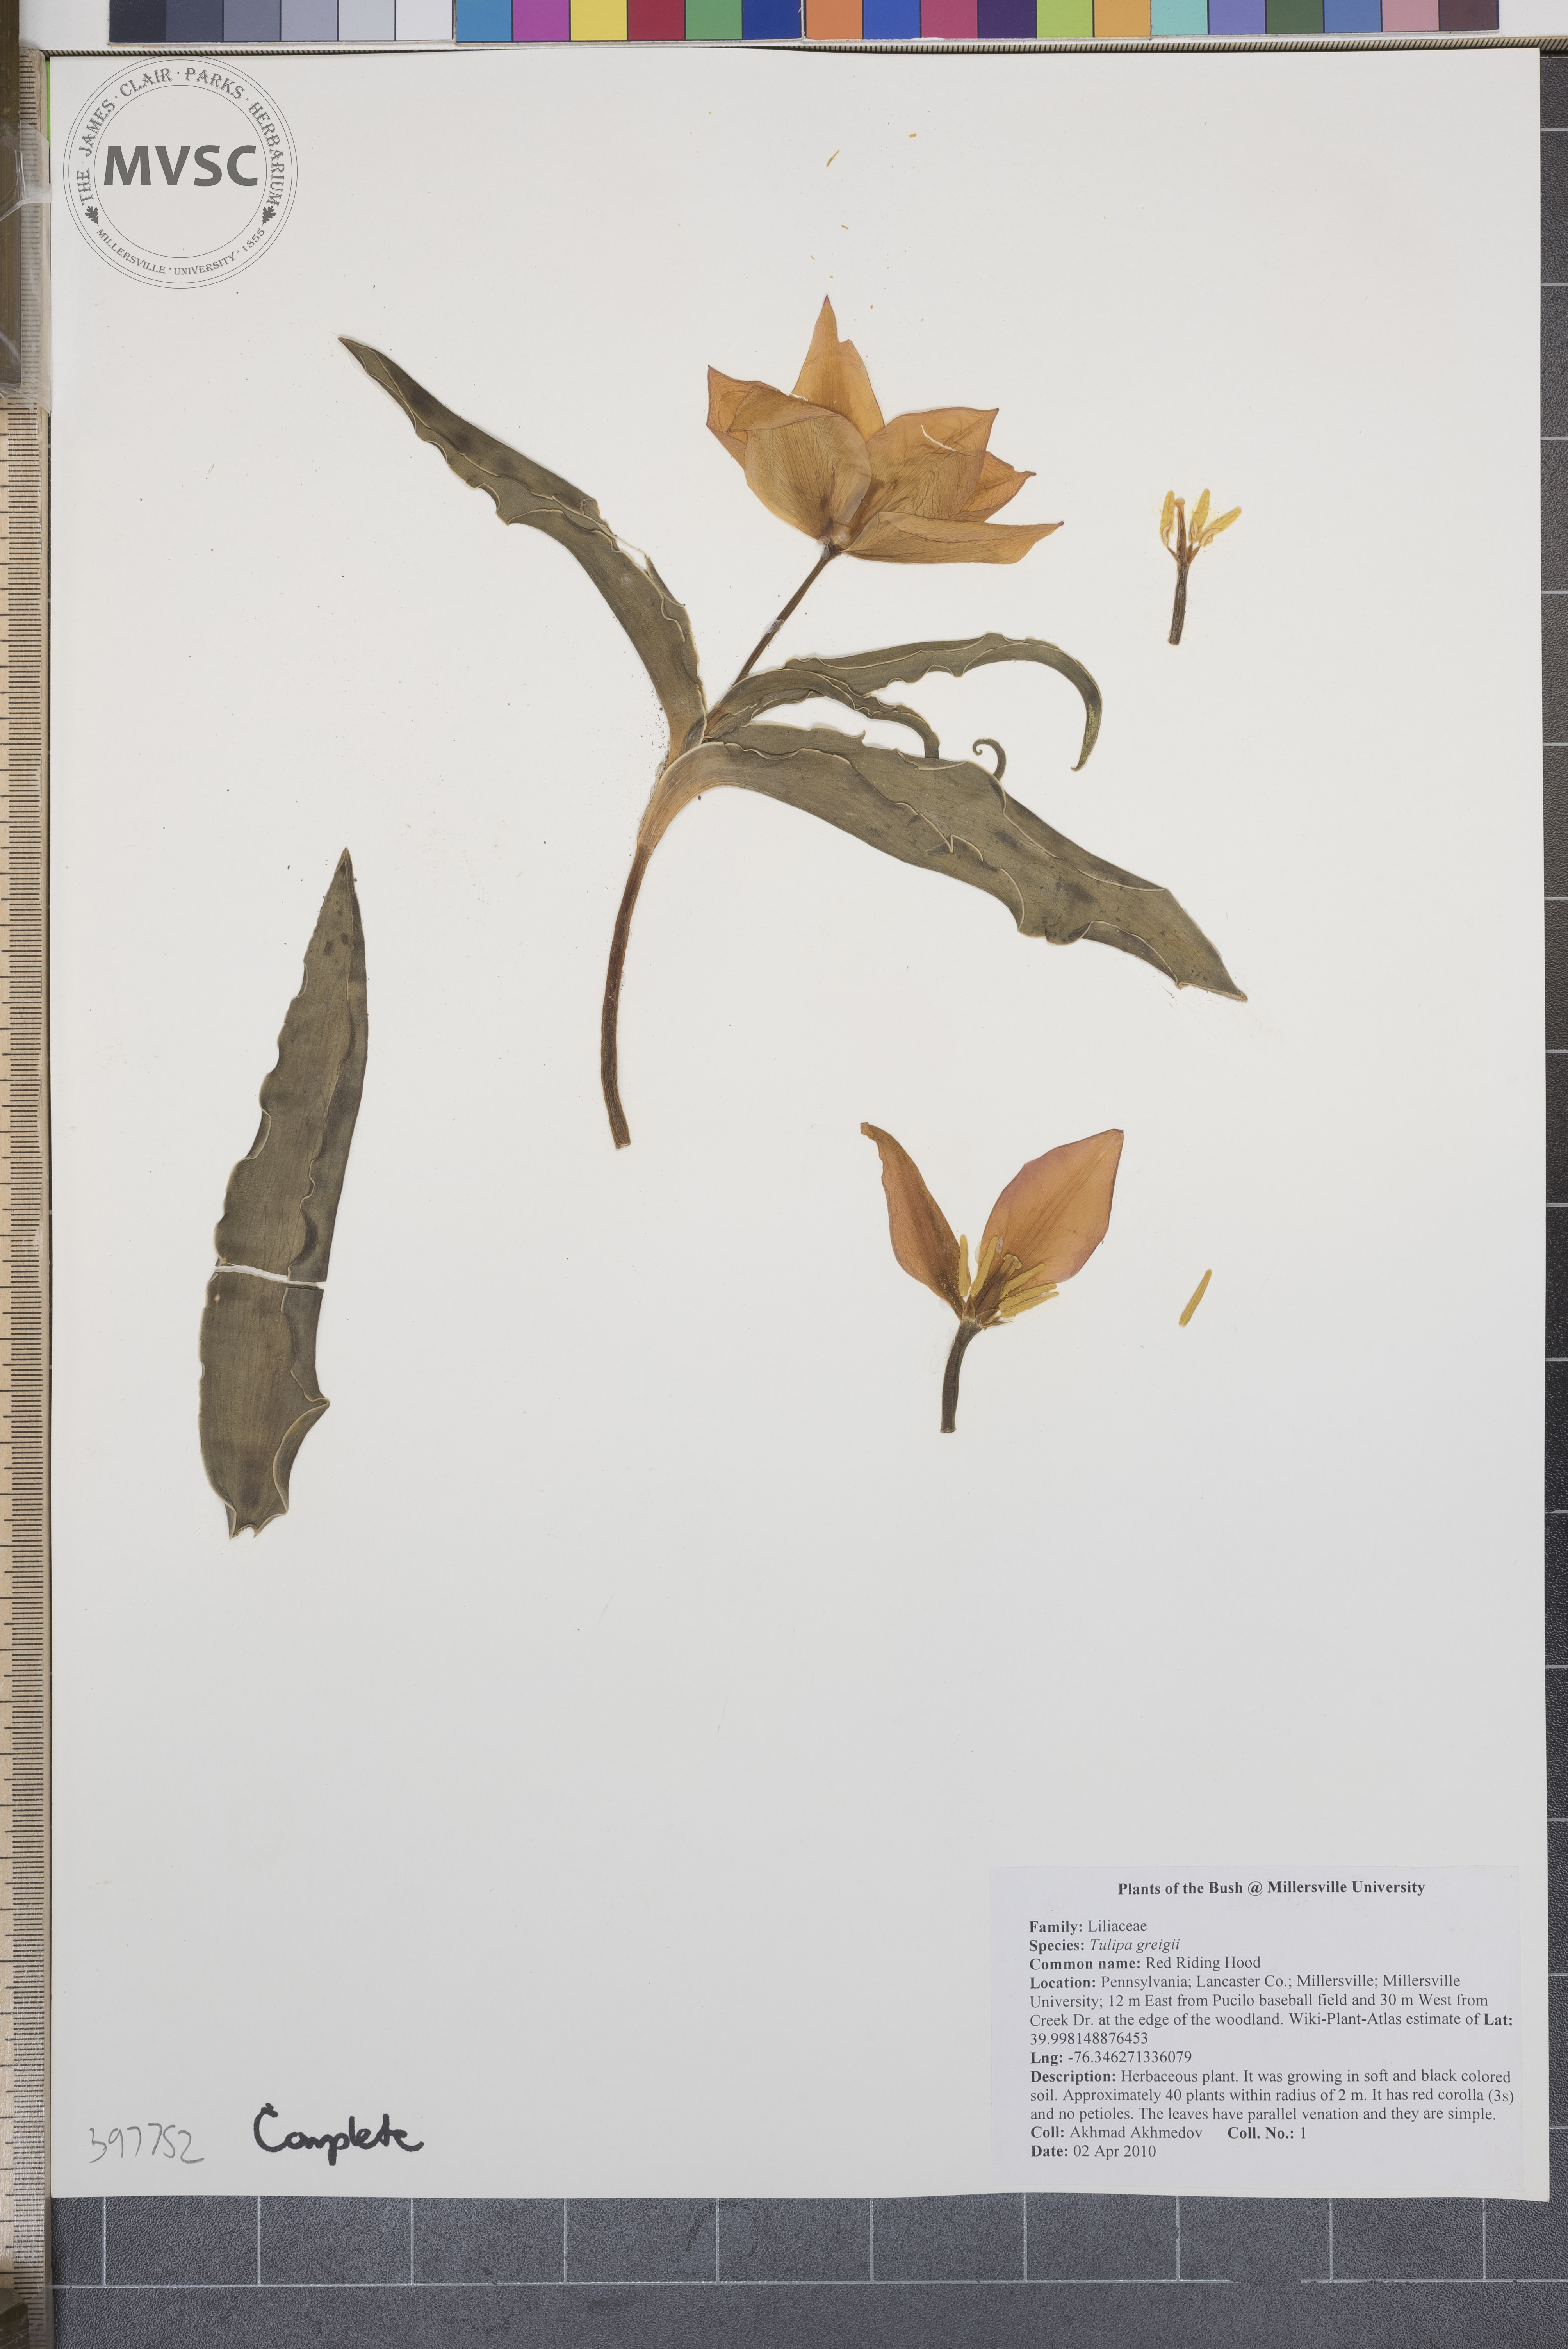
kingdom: Plantae
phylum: Tracheophyta
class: Liliopsida
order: Liliales
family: Liliaceae
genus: Tulipa
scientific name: Tulipa greigii
